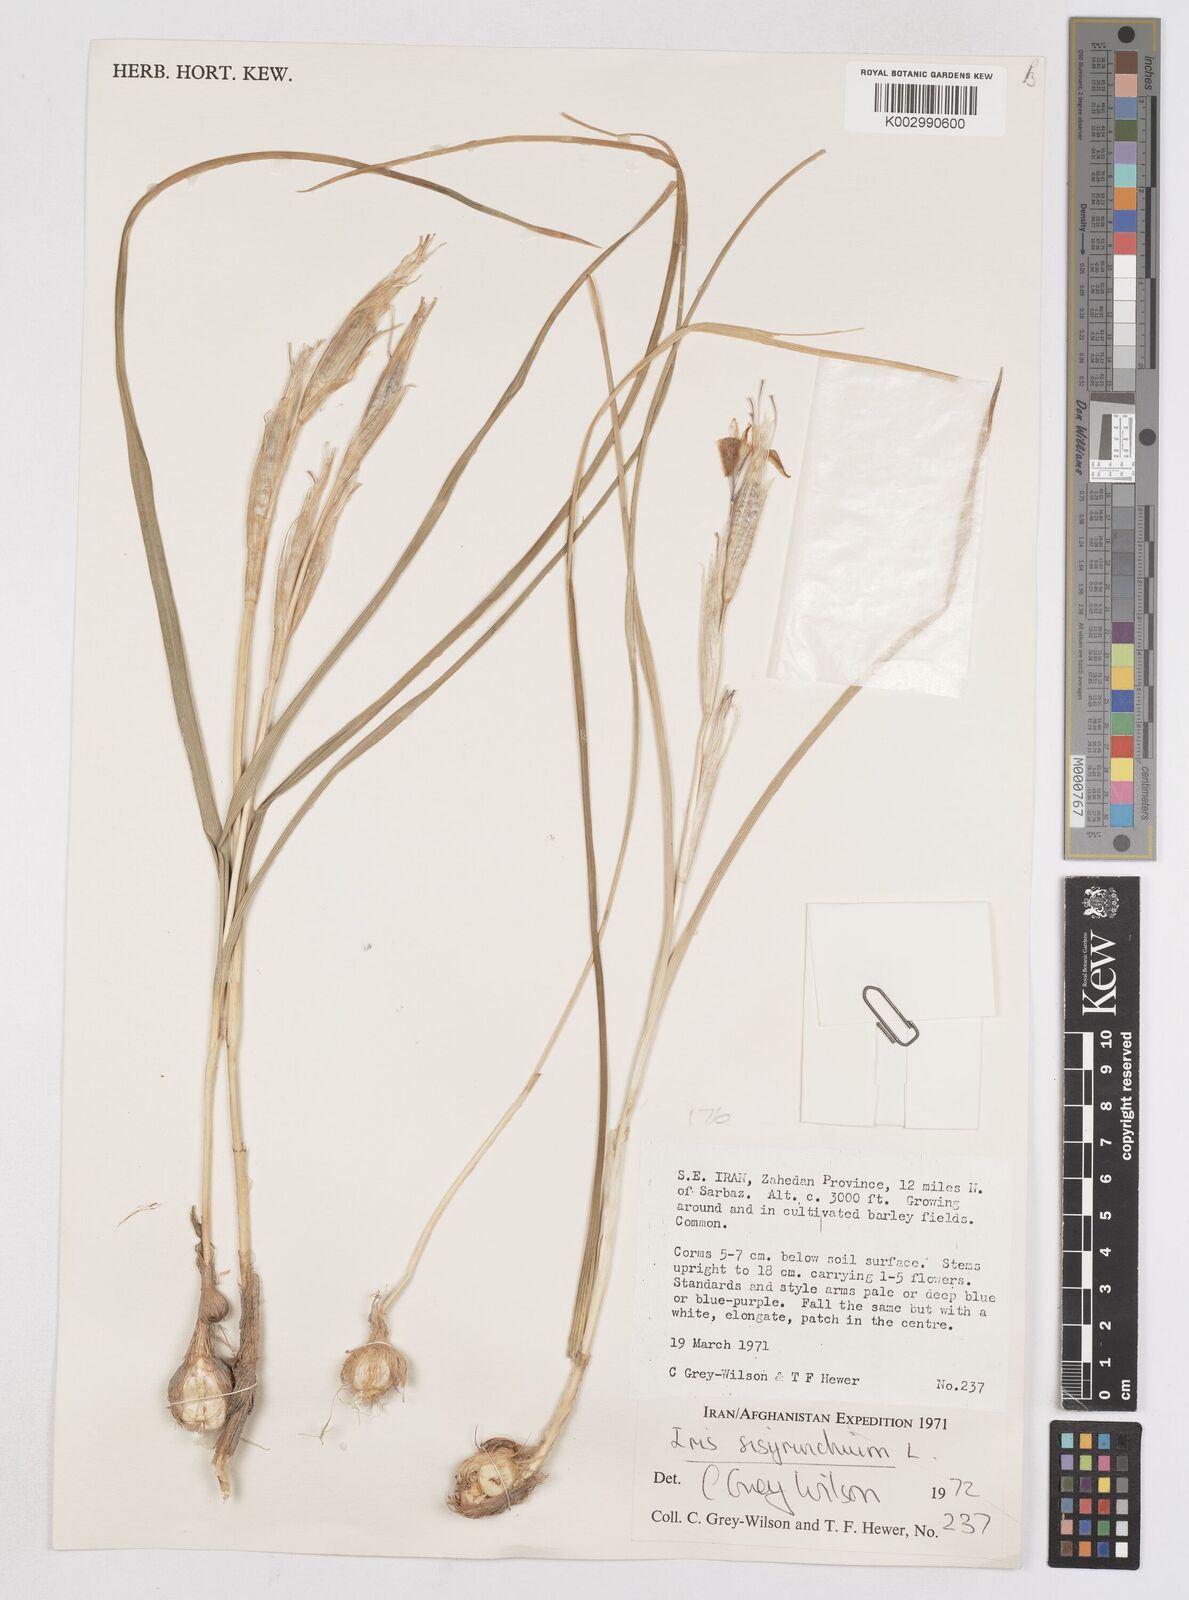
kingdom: Plantae
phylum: Tracheophyta
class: Liliopsida
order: Asparagales
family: Iridaceae
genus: Moraea
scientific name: Moraea sisyrinchium
